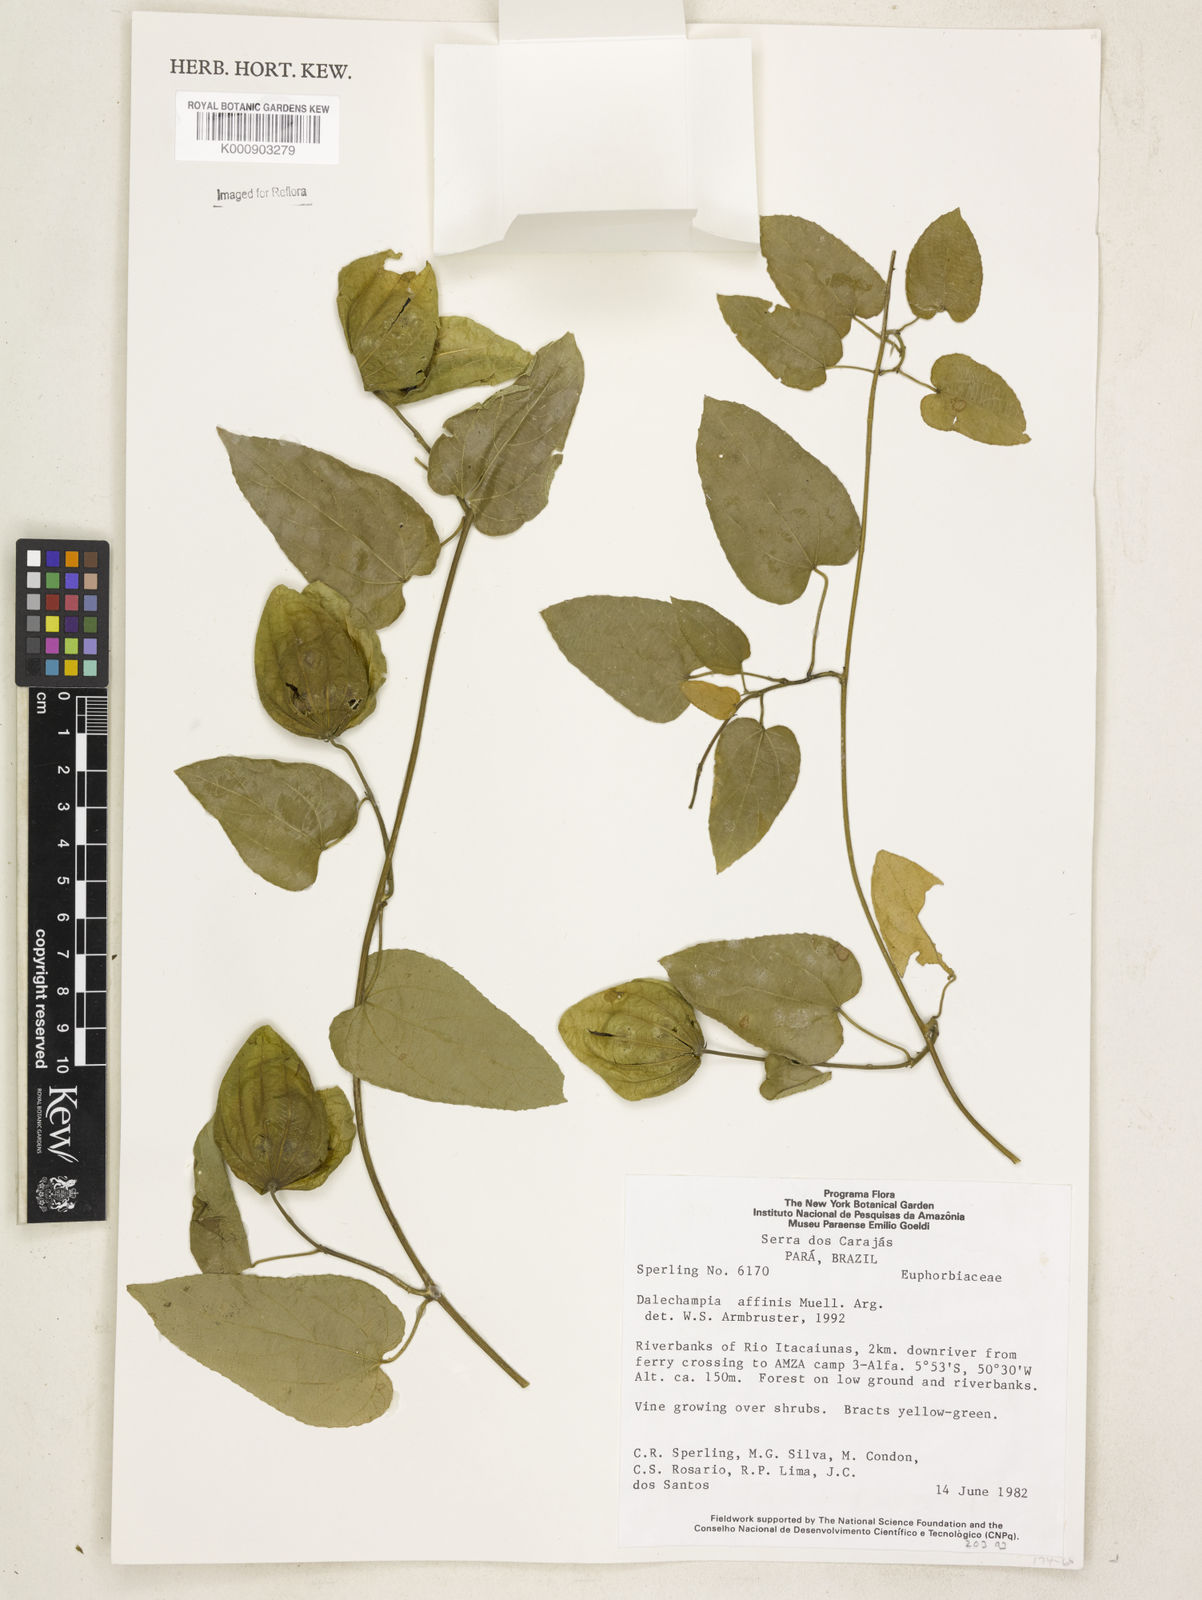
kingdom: Plantae
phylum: Tracheophyta
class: Magnoliopsida
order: Malpighiales
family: Euphorbiaceae
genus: Dalechampia
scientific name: Dalechampia
